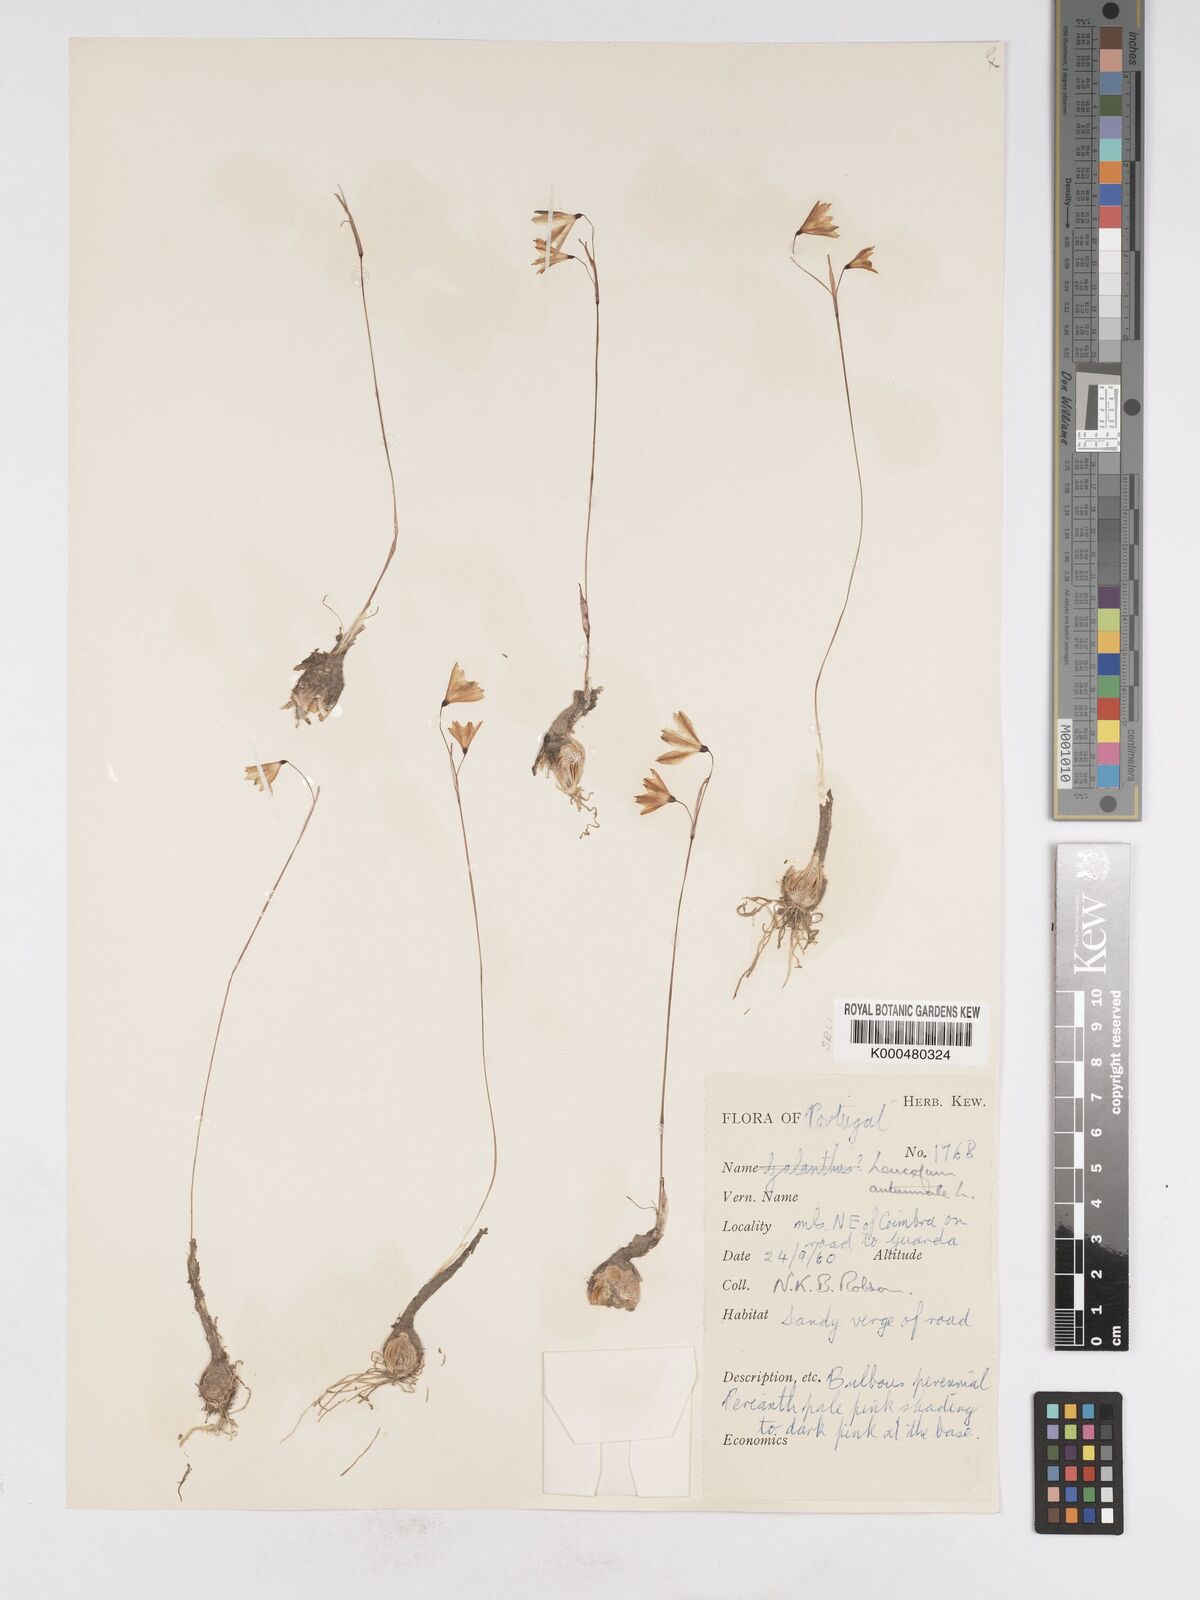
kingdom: Plantae
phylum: Tracheophyta
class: Liliopsida
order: Asparagales
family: Amaryllidaceae
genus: Acis
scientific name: Acis autumnalis
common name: Autumn snowflake
